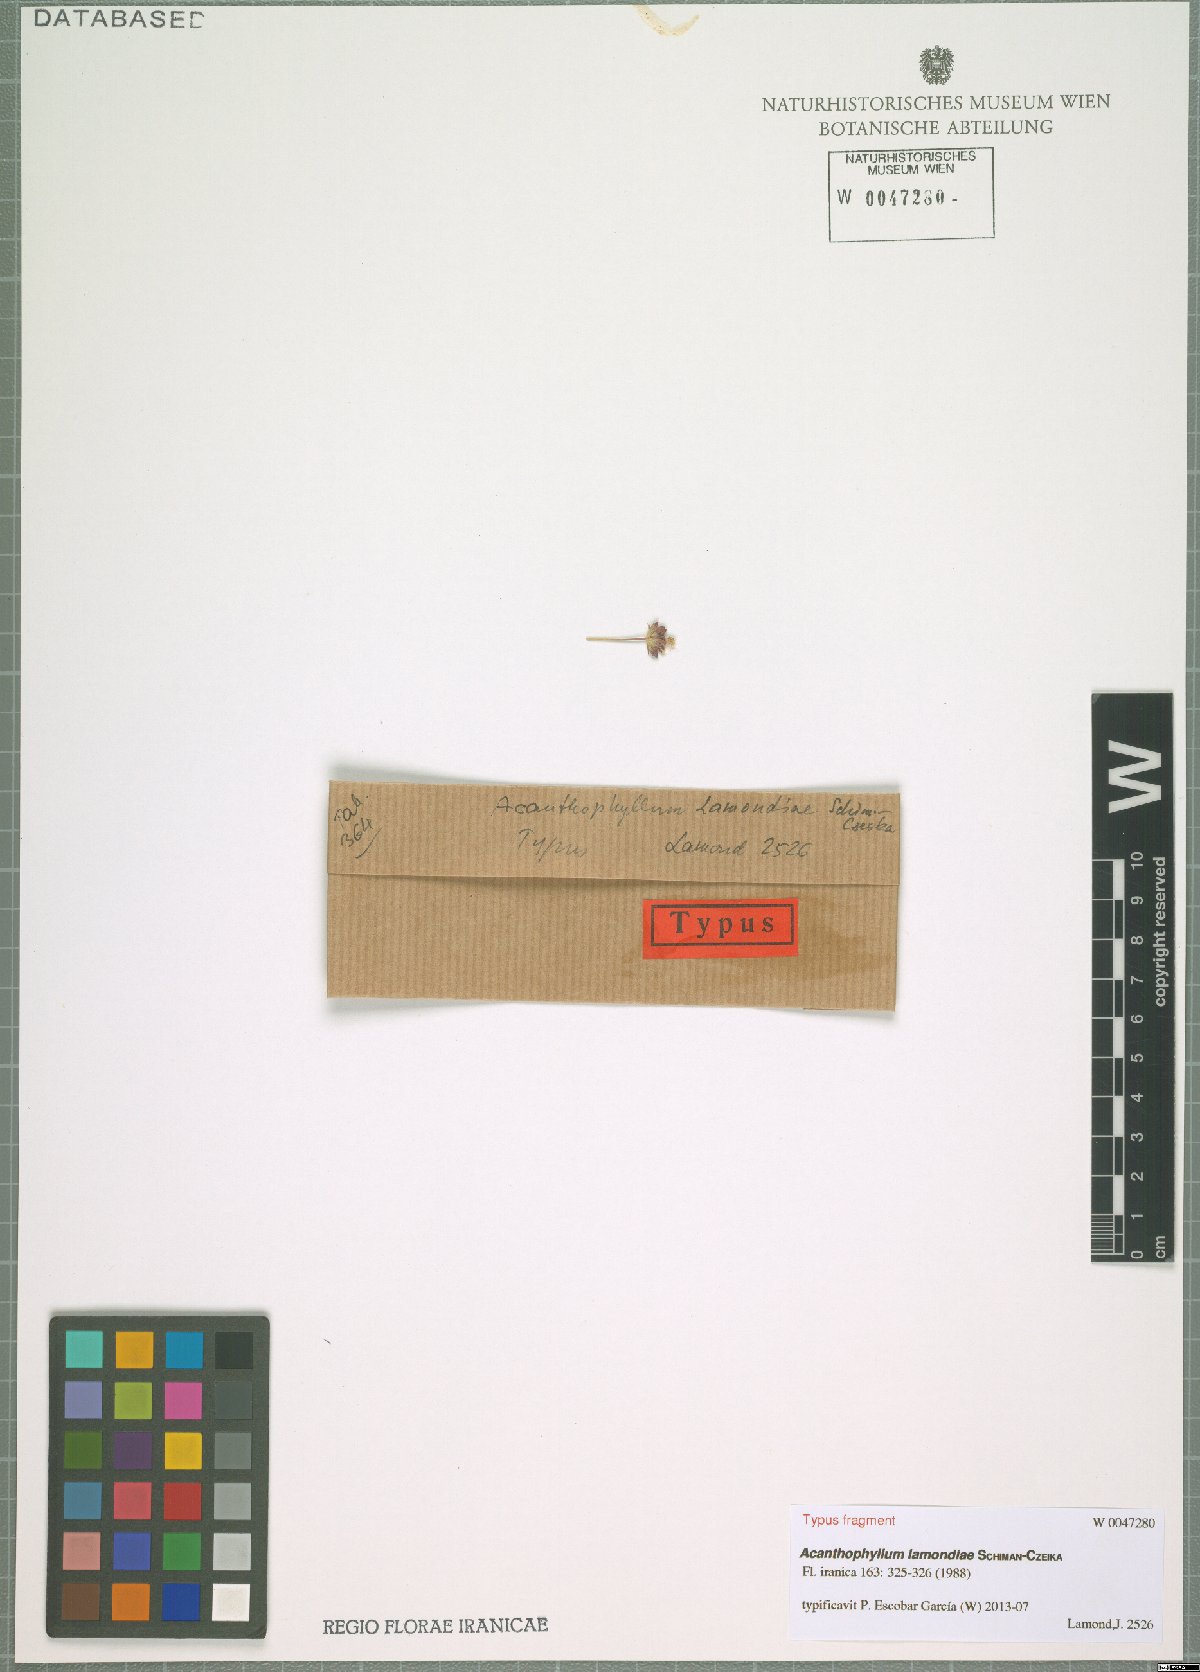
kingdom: Plantae
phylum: Tracheophyta
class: Magnoliopsida
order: Caryophyllales
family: Caryophyllaceae
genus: Acanthophyllum
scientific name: Acanthophyllum lamondiae
